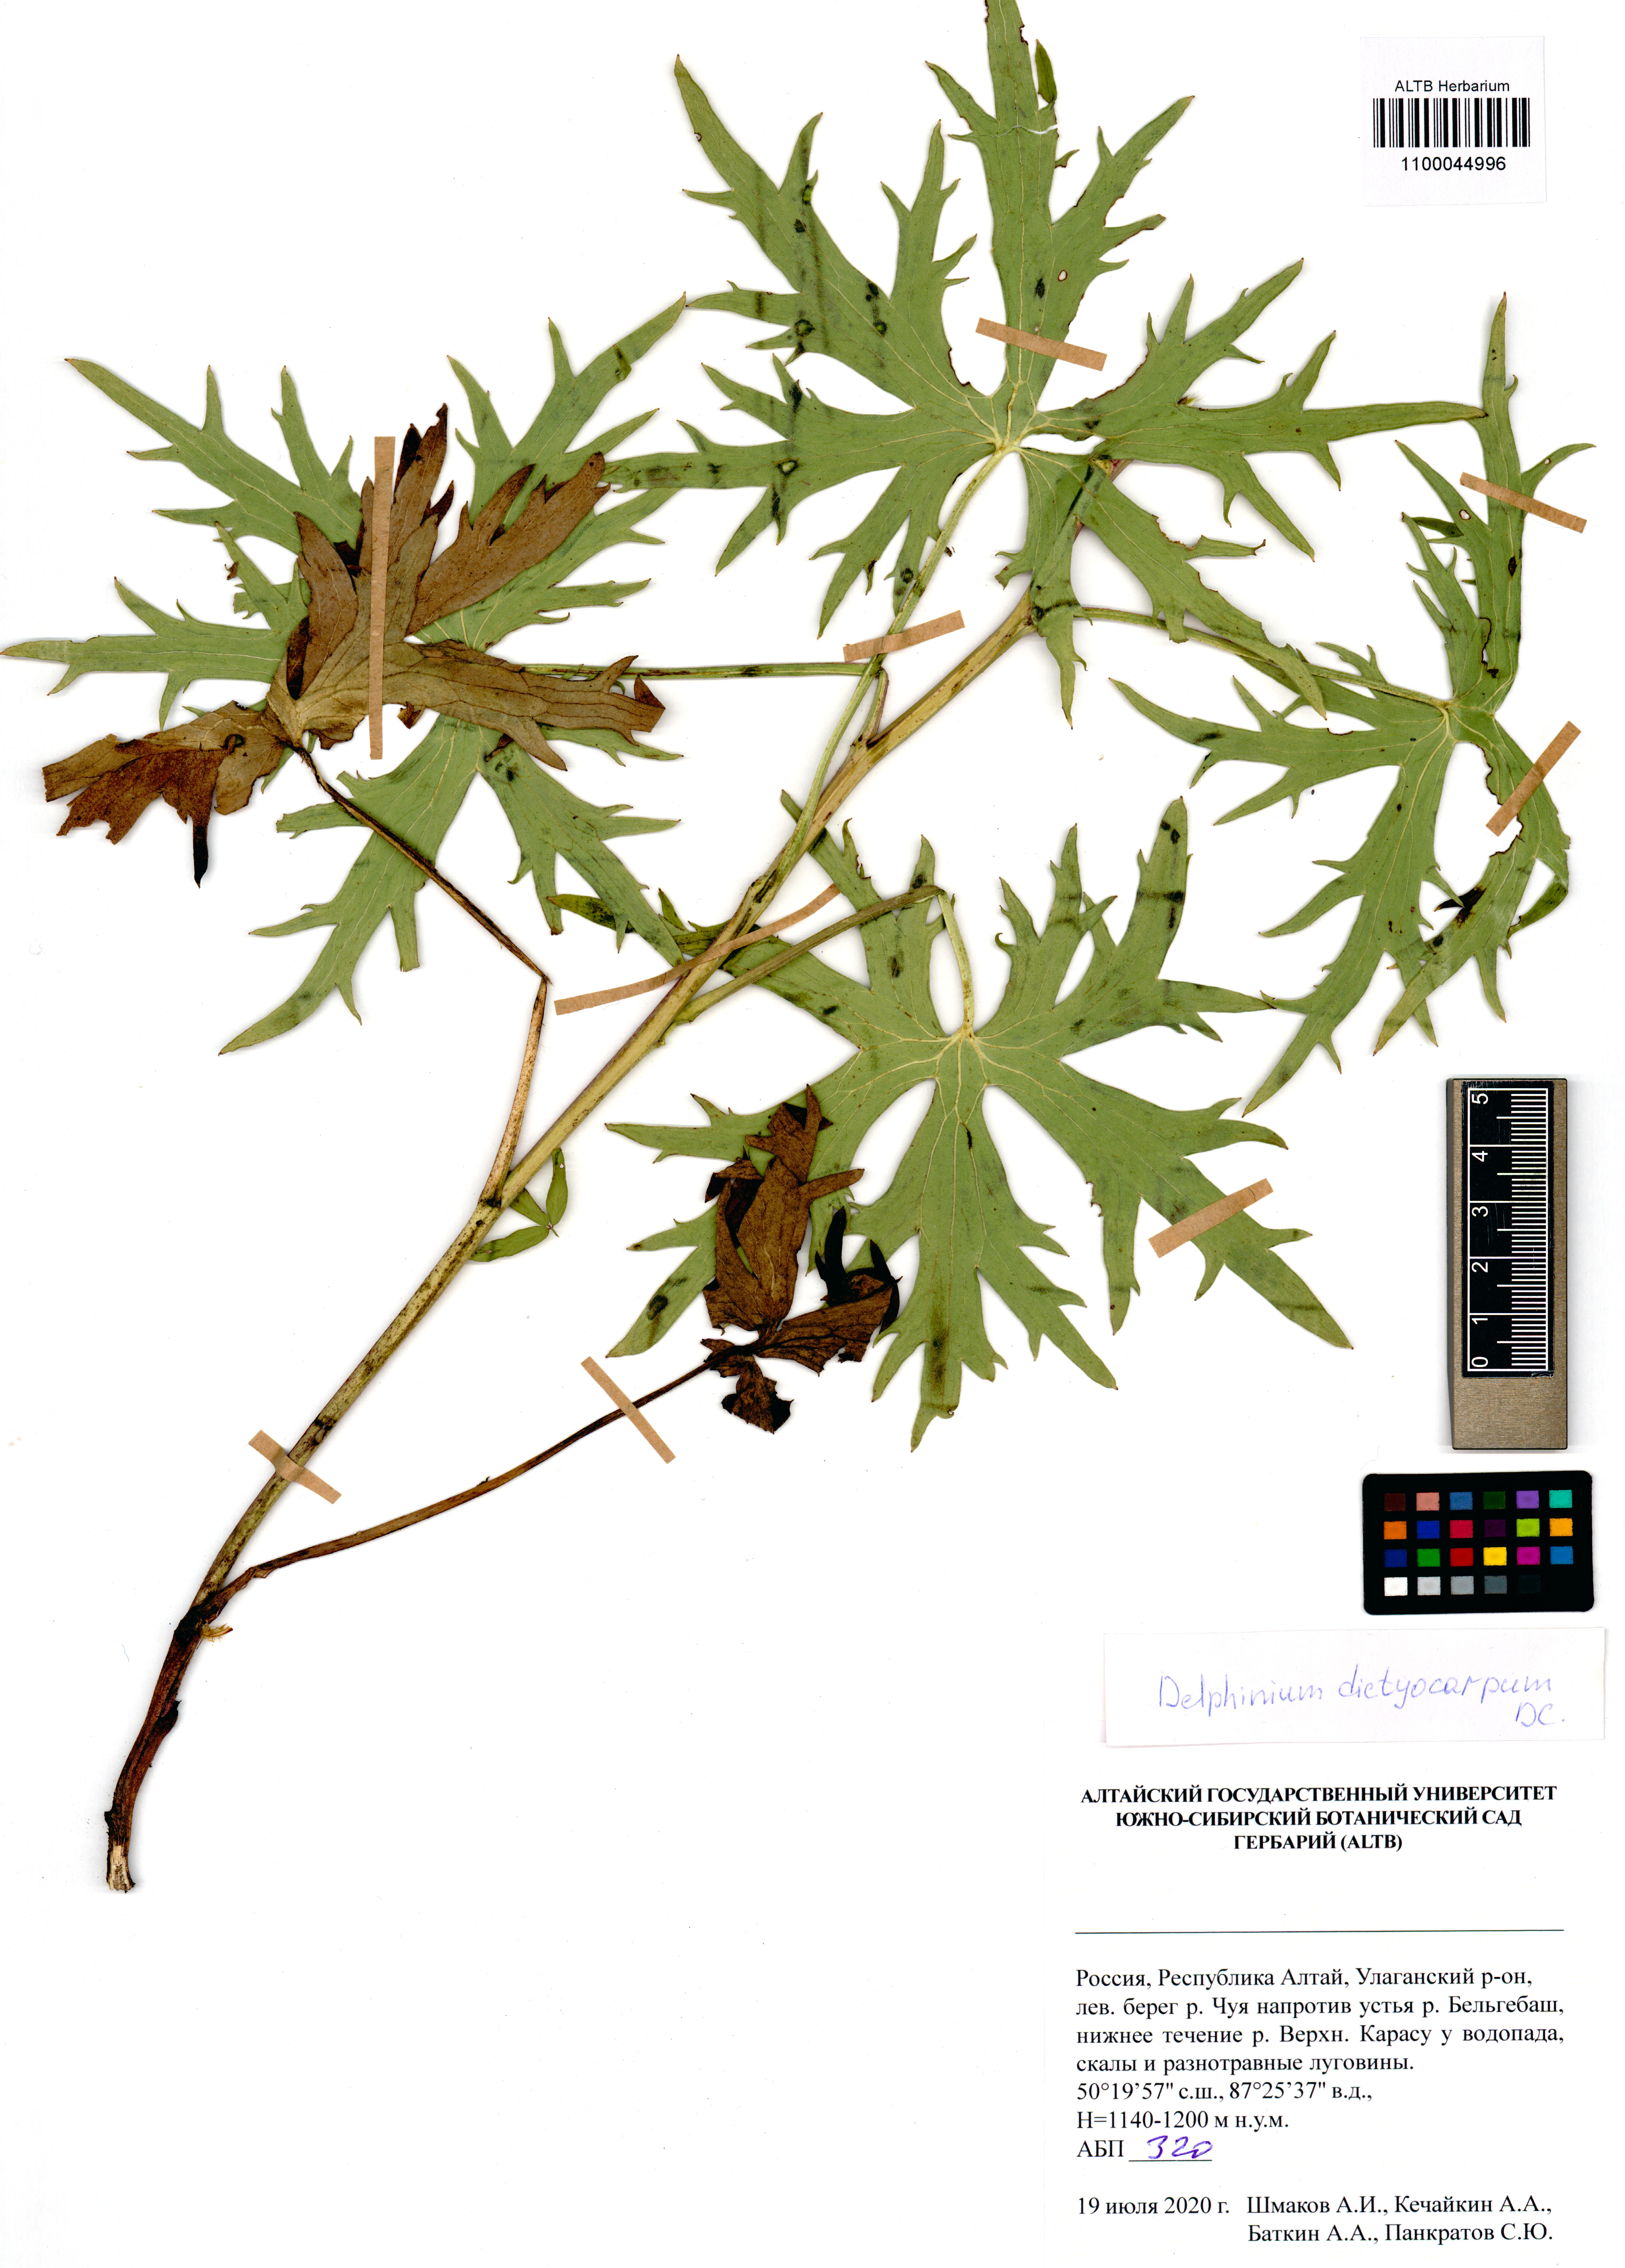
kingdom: Plantae
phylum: Tracheophyta
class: Magnoliopsida
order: Ranunculales
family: Ranunculaceae
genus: Delphinium
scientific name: Delphinium dictyocarpum
